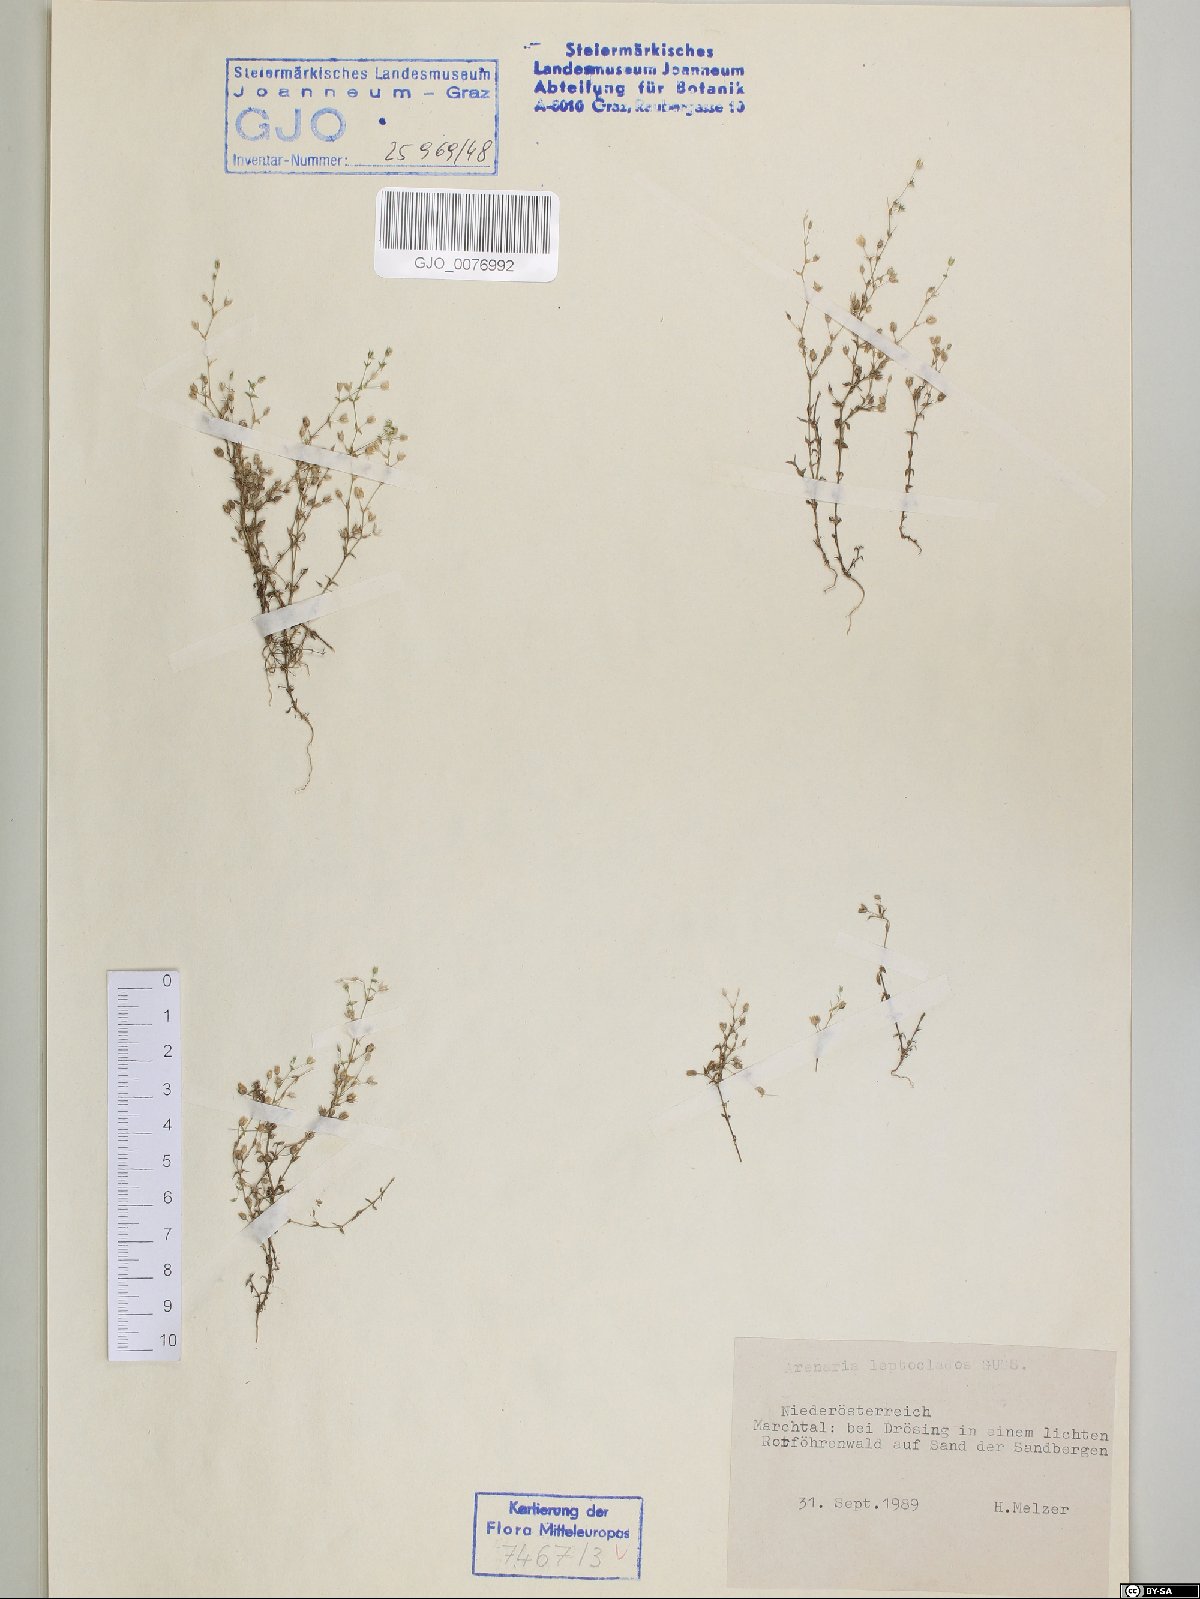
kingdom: Plantae
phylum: Tracheophyta
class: Magnoliopsida
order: Caryophyllales
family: Caryophyllaceae
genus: Arenaria
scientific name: Arenaria leptoclados
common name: Thyme-leaved sandwort
